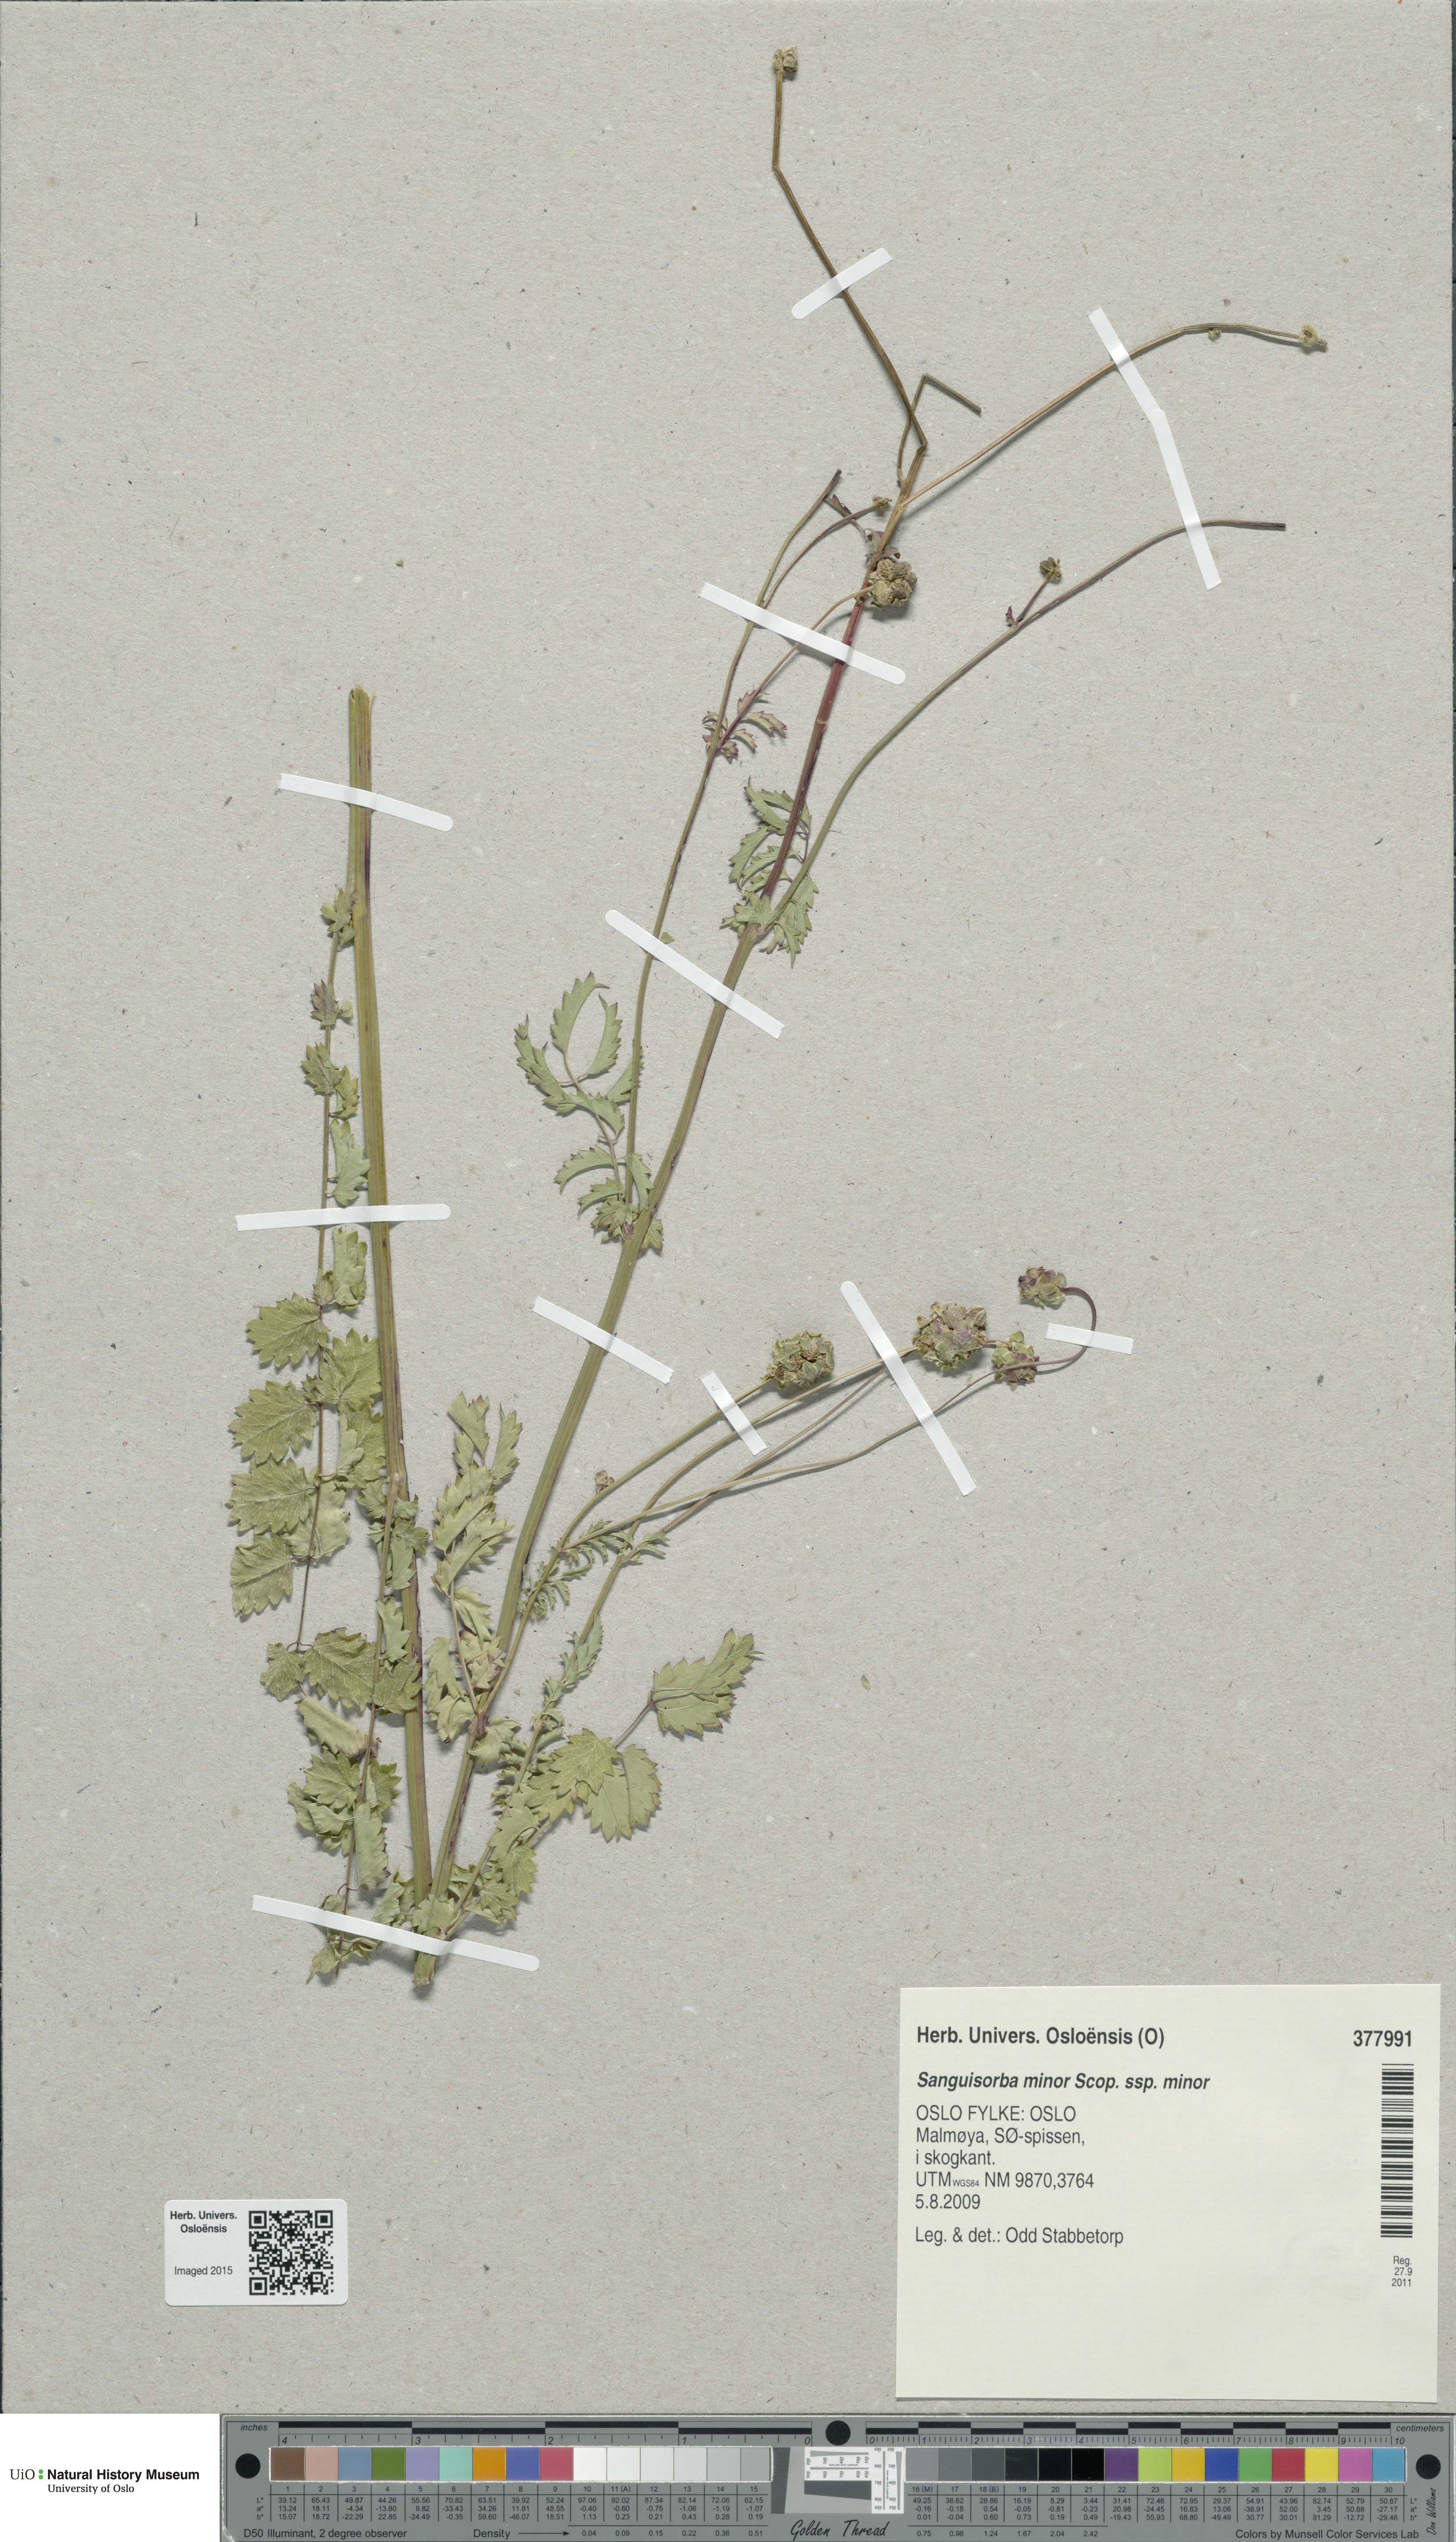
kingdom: Plantae
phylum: Tracheophyta
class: Magnoliopsida
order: Rosales
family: Rosaceae
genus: Poterium
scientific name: Poterium sanguisorba
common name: Salad burnet
